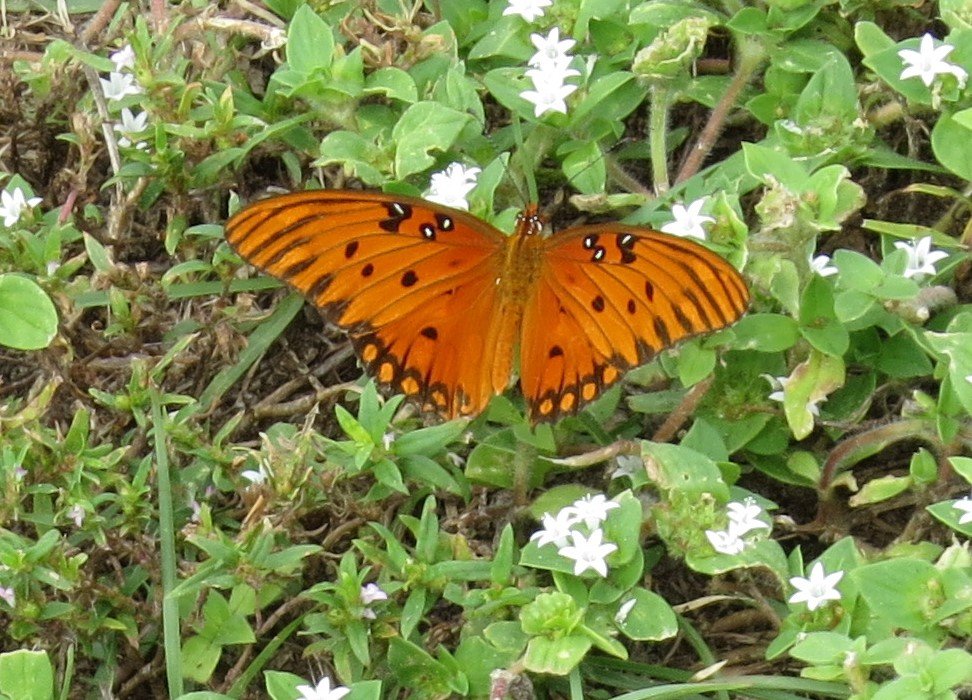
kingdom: Animalia
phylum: Arthropoda
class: Insecta
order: Lepidoptera
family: Nymphalidae
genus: Dione
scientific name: Dione vanillae
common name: Gulf Fritillary
